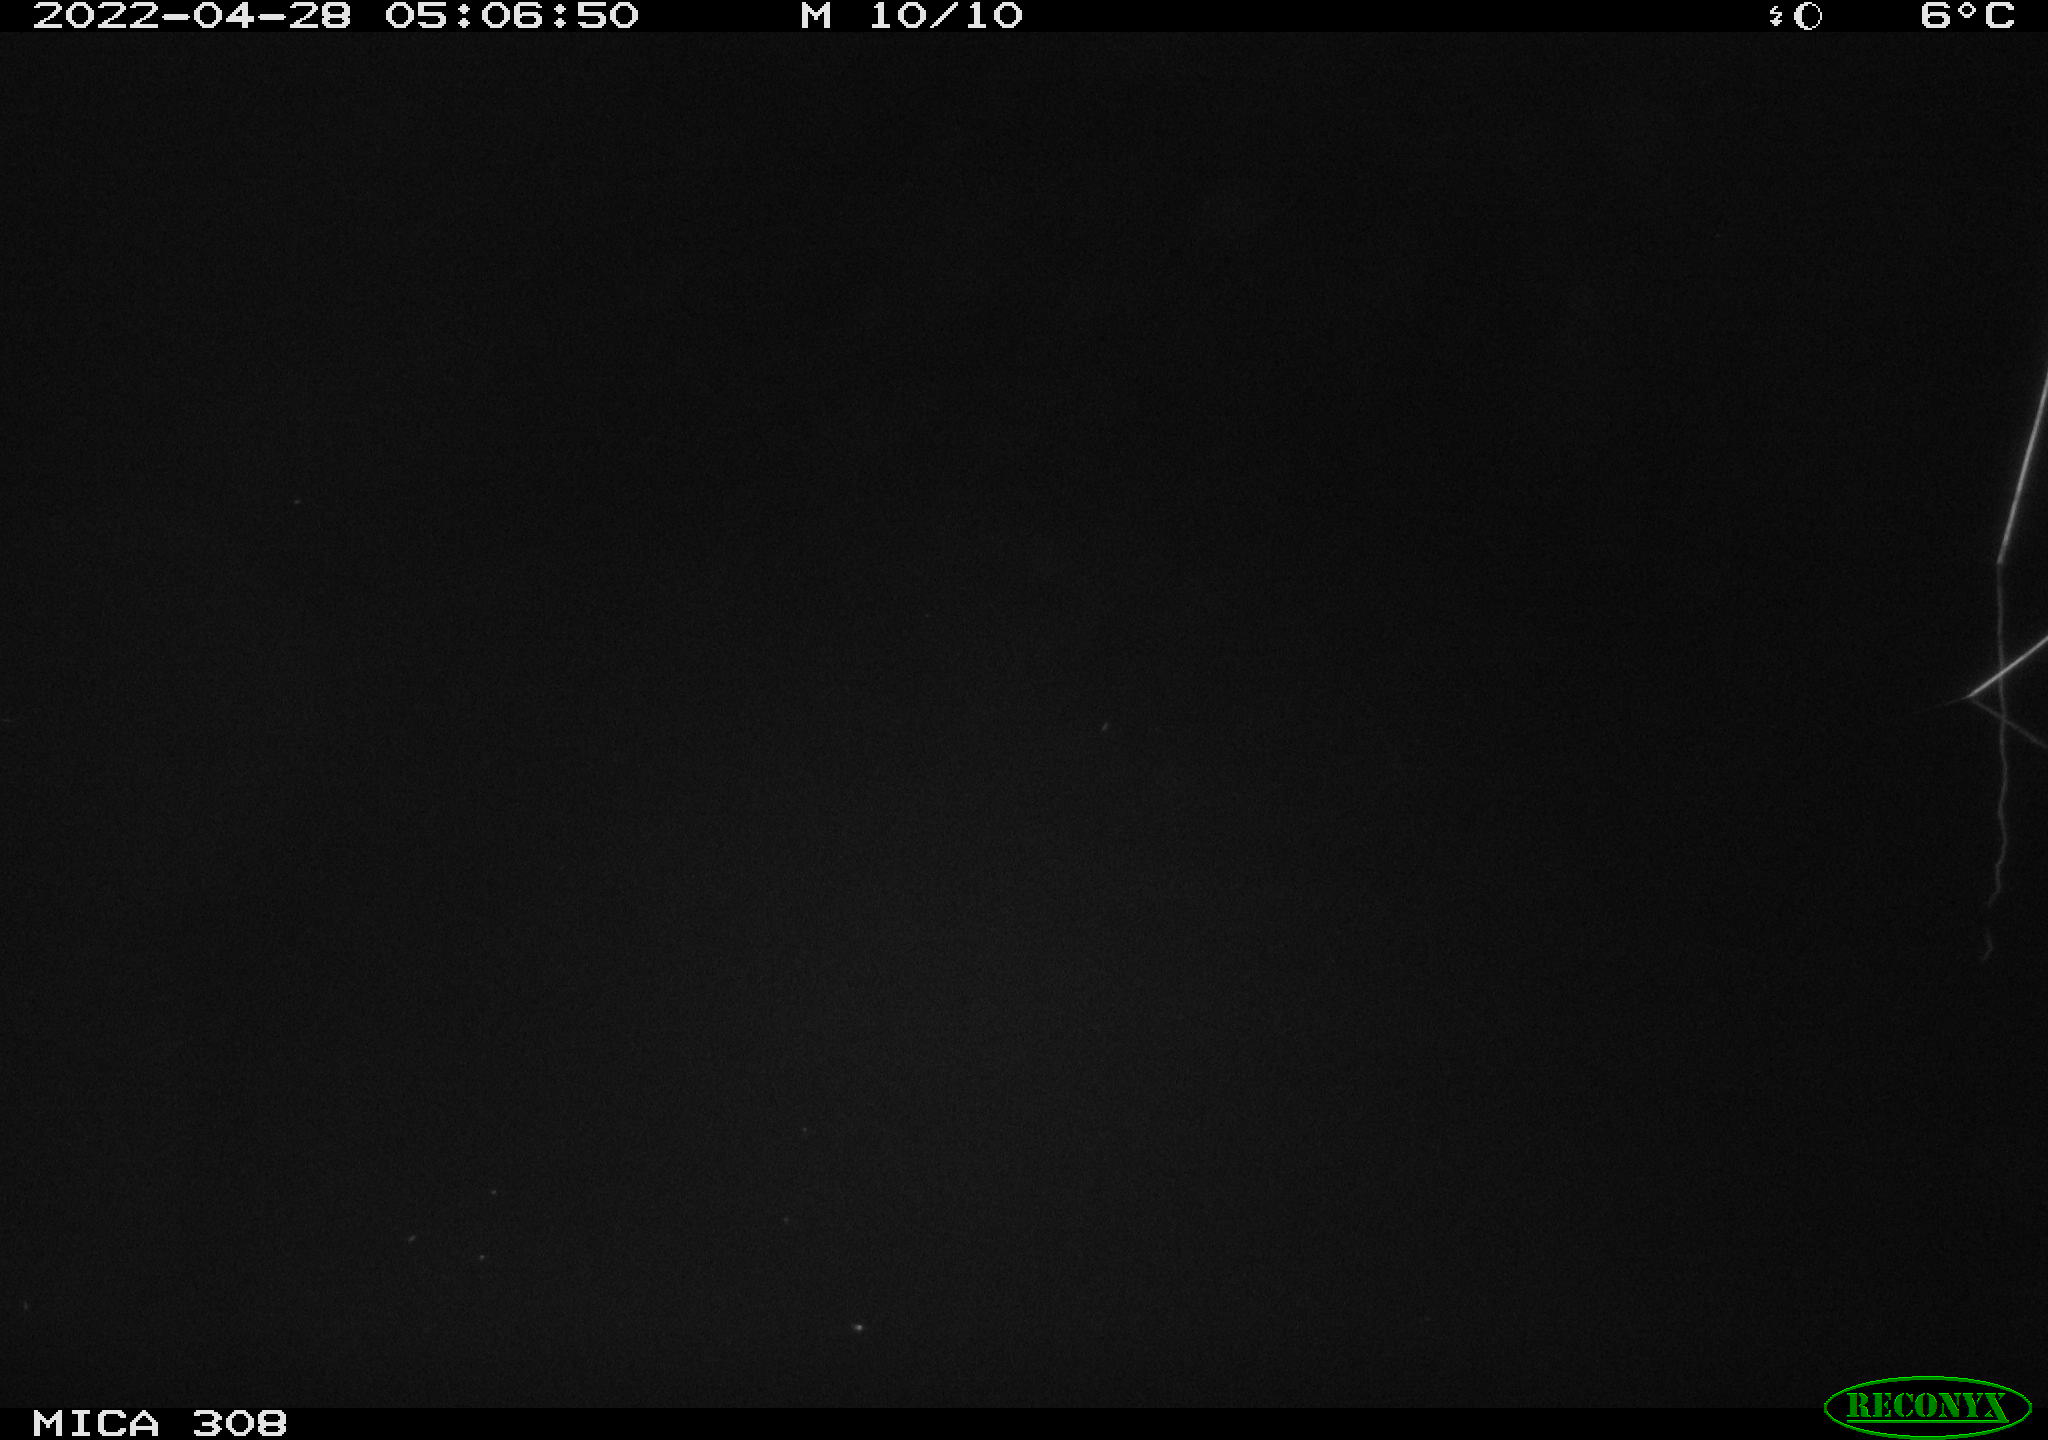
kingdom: Animalia
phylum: Chordata
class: Aves
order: Anseriformes
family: Anatidae
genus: Anas
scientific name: Anas platyrhynchos
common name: Mallard
